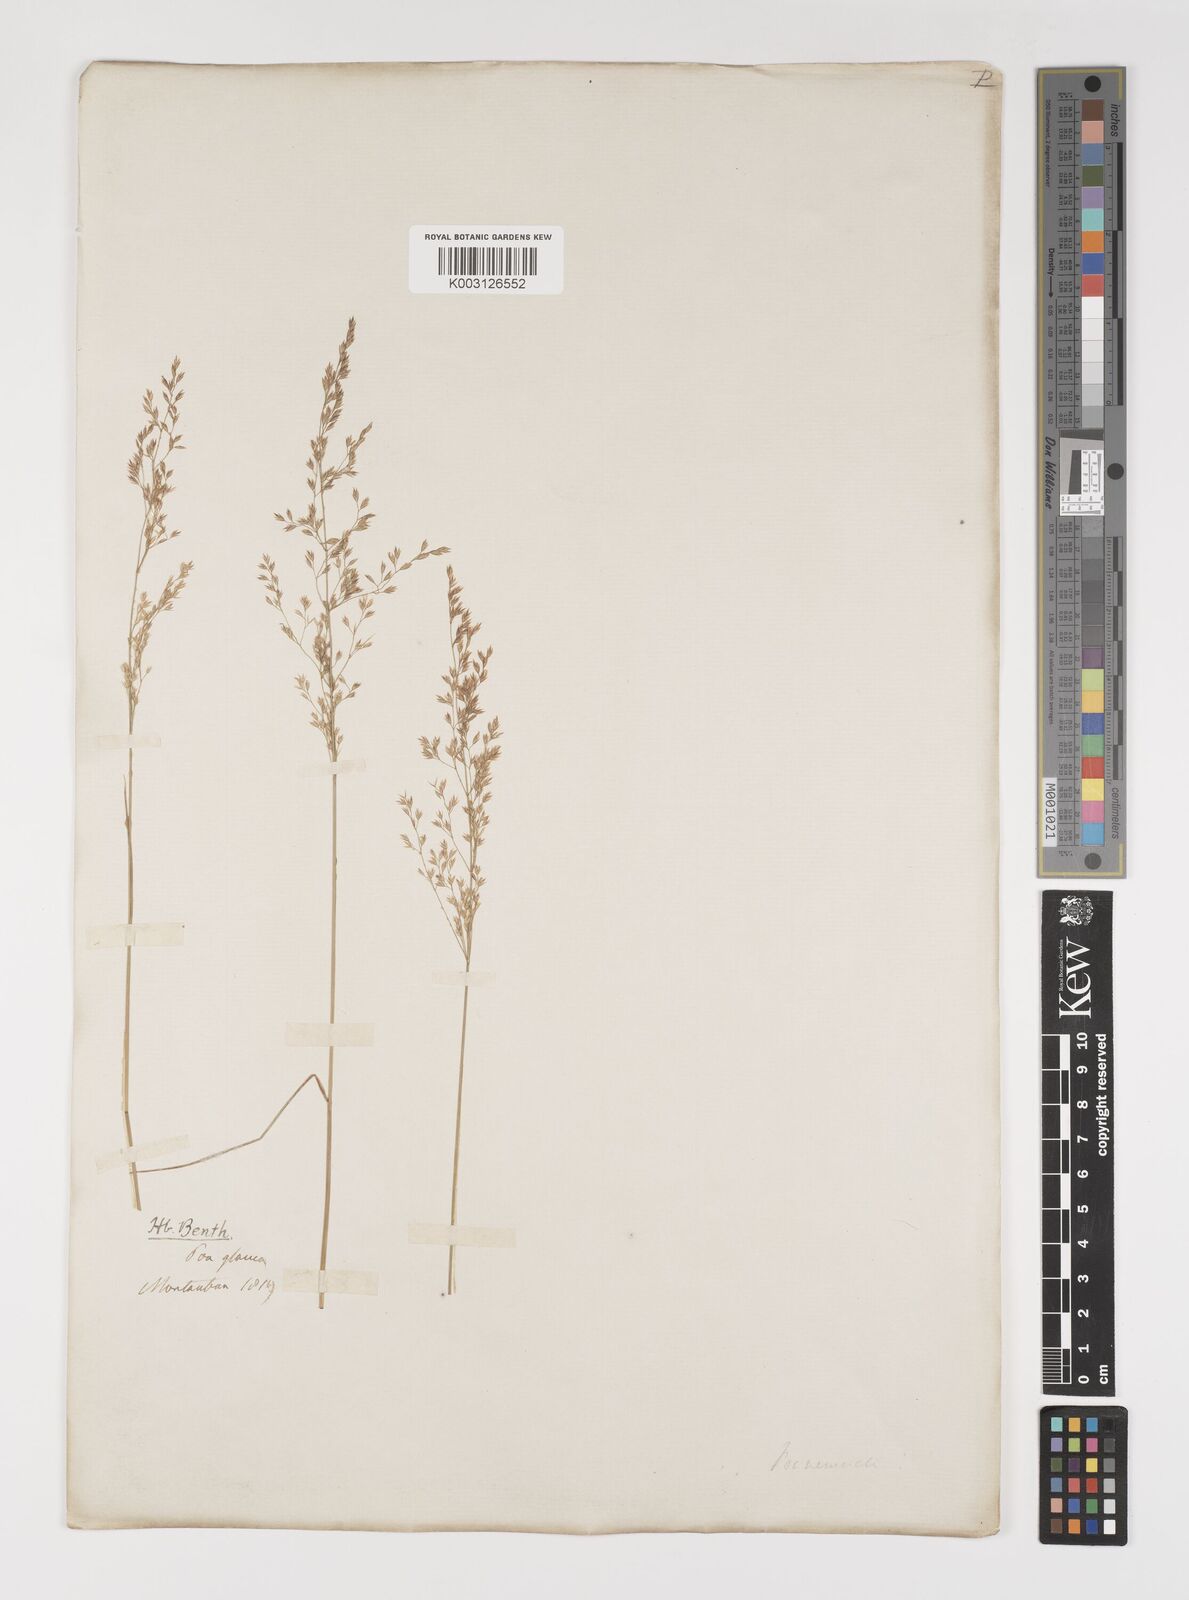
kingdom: Plantae
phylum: Tracheophyta
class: Liliopsida
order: Poales
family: Poaceae
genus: Poa
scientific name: Poa nemoralis
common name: Wood bluegrass
